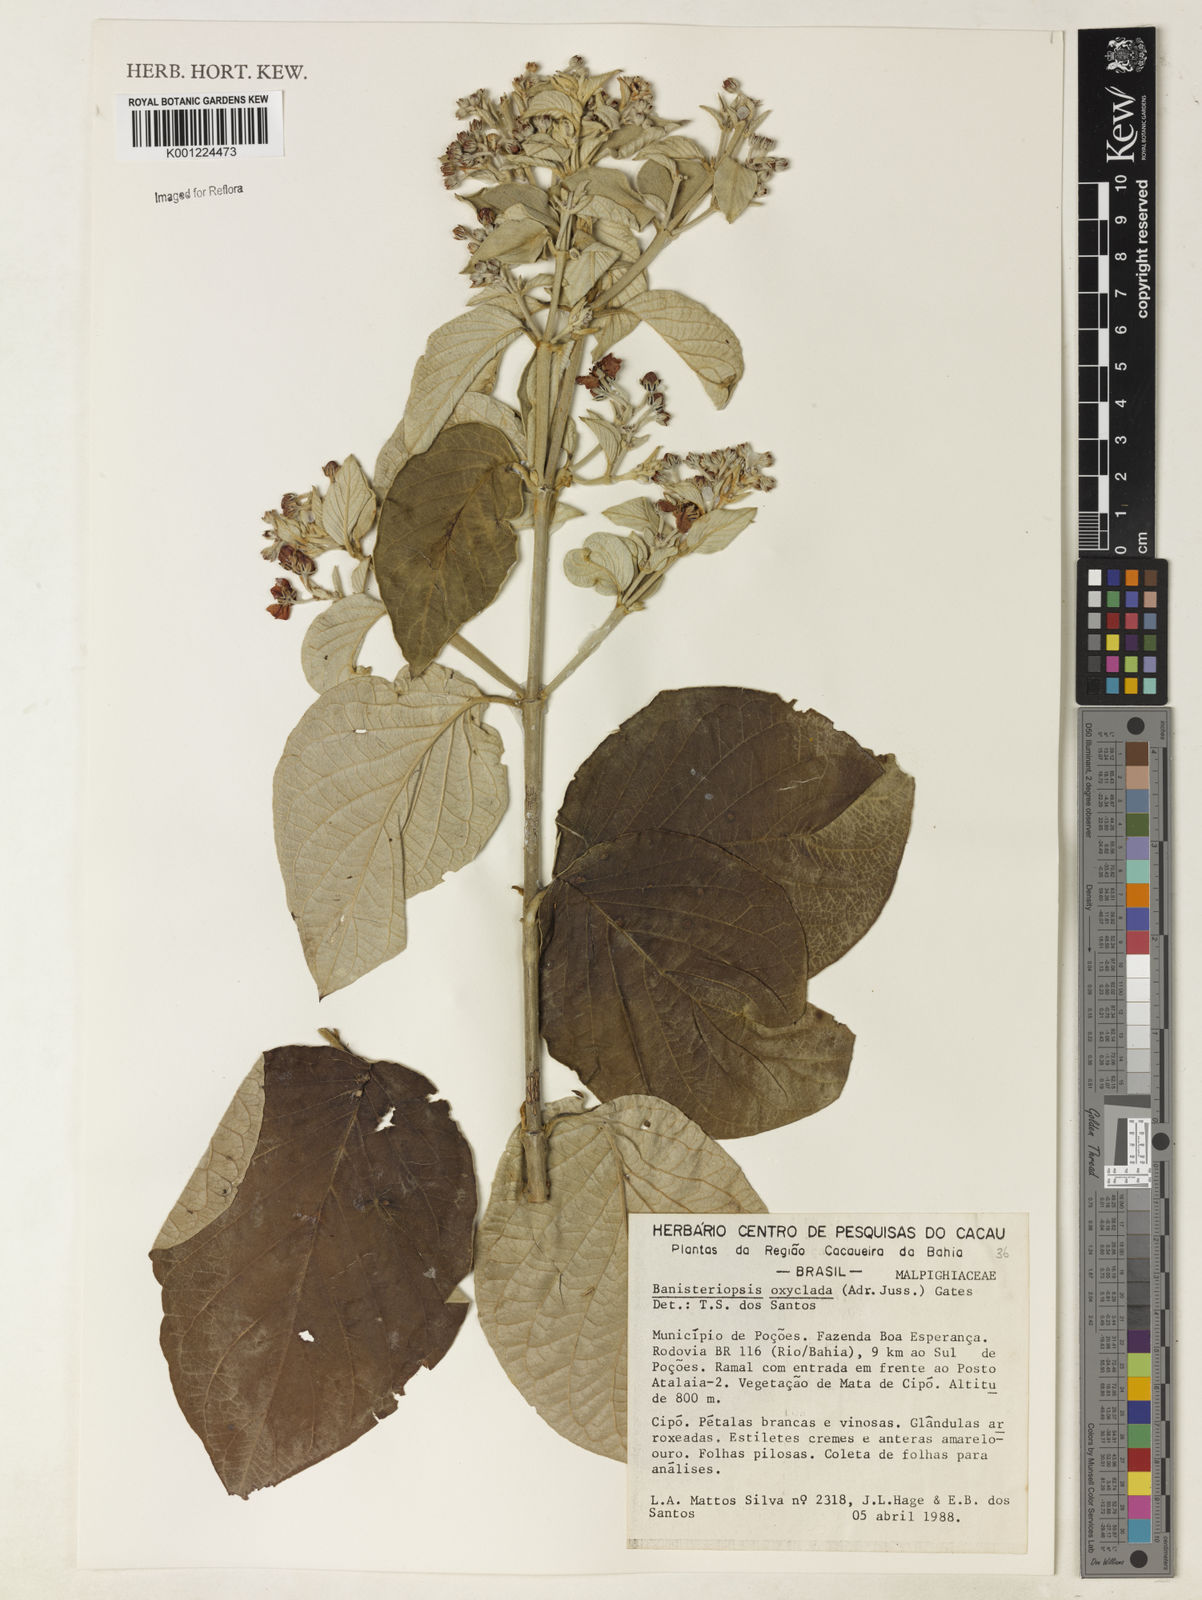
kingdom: Plantae
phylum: Tracheophyta
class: Magnoliopsida
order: Malpighiales
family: Malpighiaceae
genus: Banisteriopsis
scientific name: Banisteriopsis oxyclada
